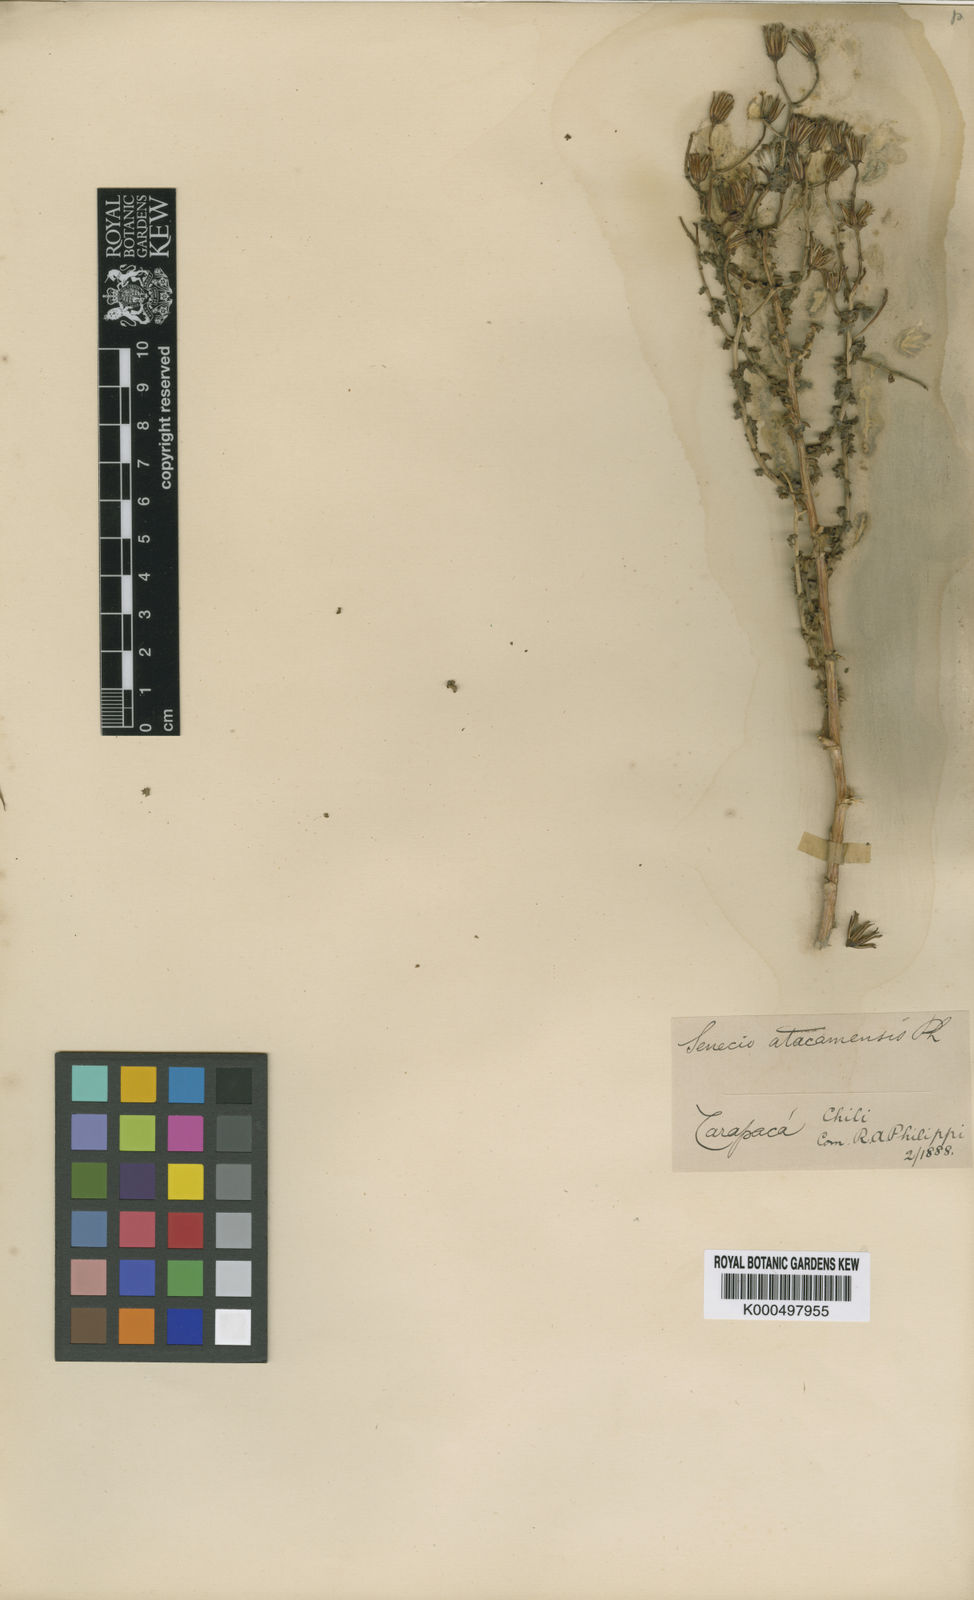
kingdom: Plantae
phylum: Tracheophyta
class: Magnoliopsida
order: Asterales
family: Asteraceae
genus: Senecio
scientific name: Senecio atacamensis
